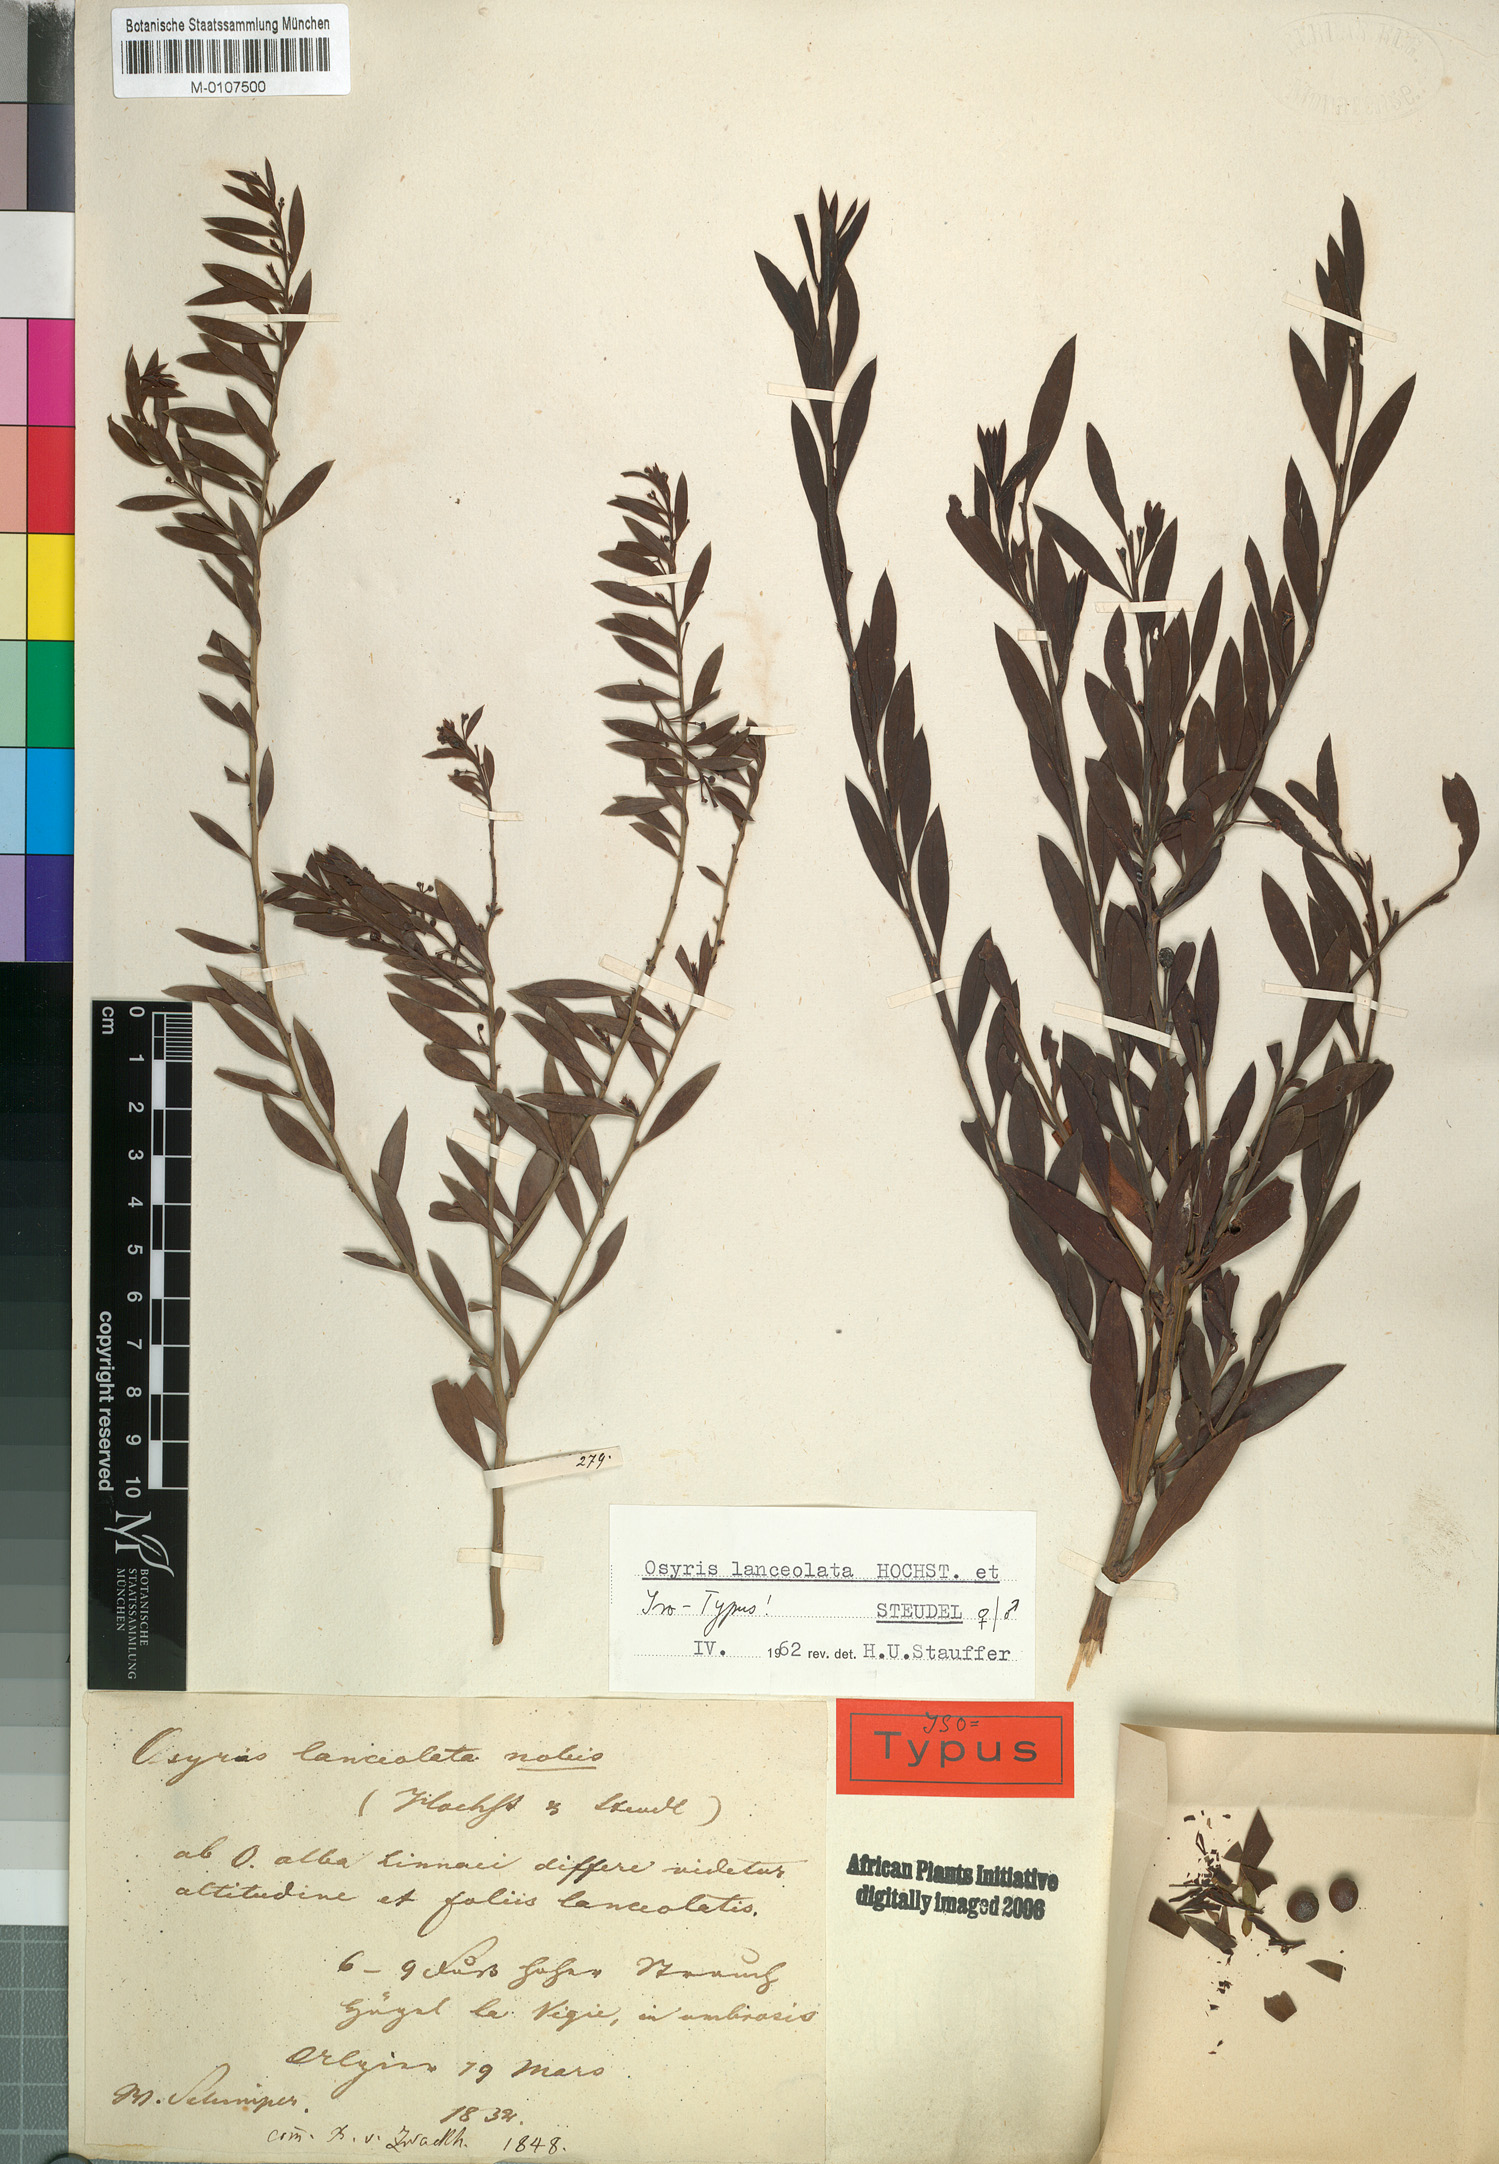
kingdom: Plantae
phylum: Tracheophyta
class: Magnoliopsida
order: Santalales
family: Santalaceae
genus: Osyris
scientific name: Osyris lanceolata
